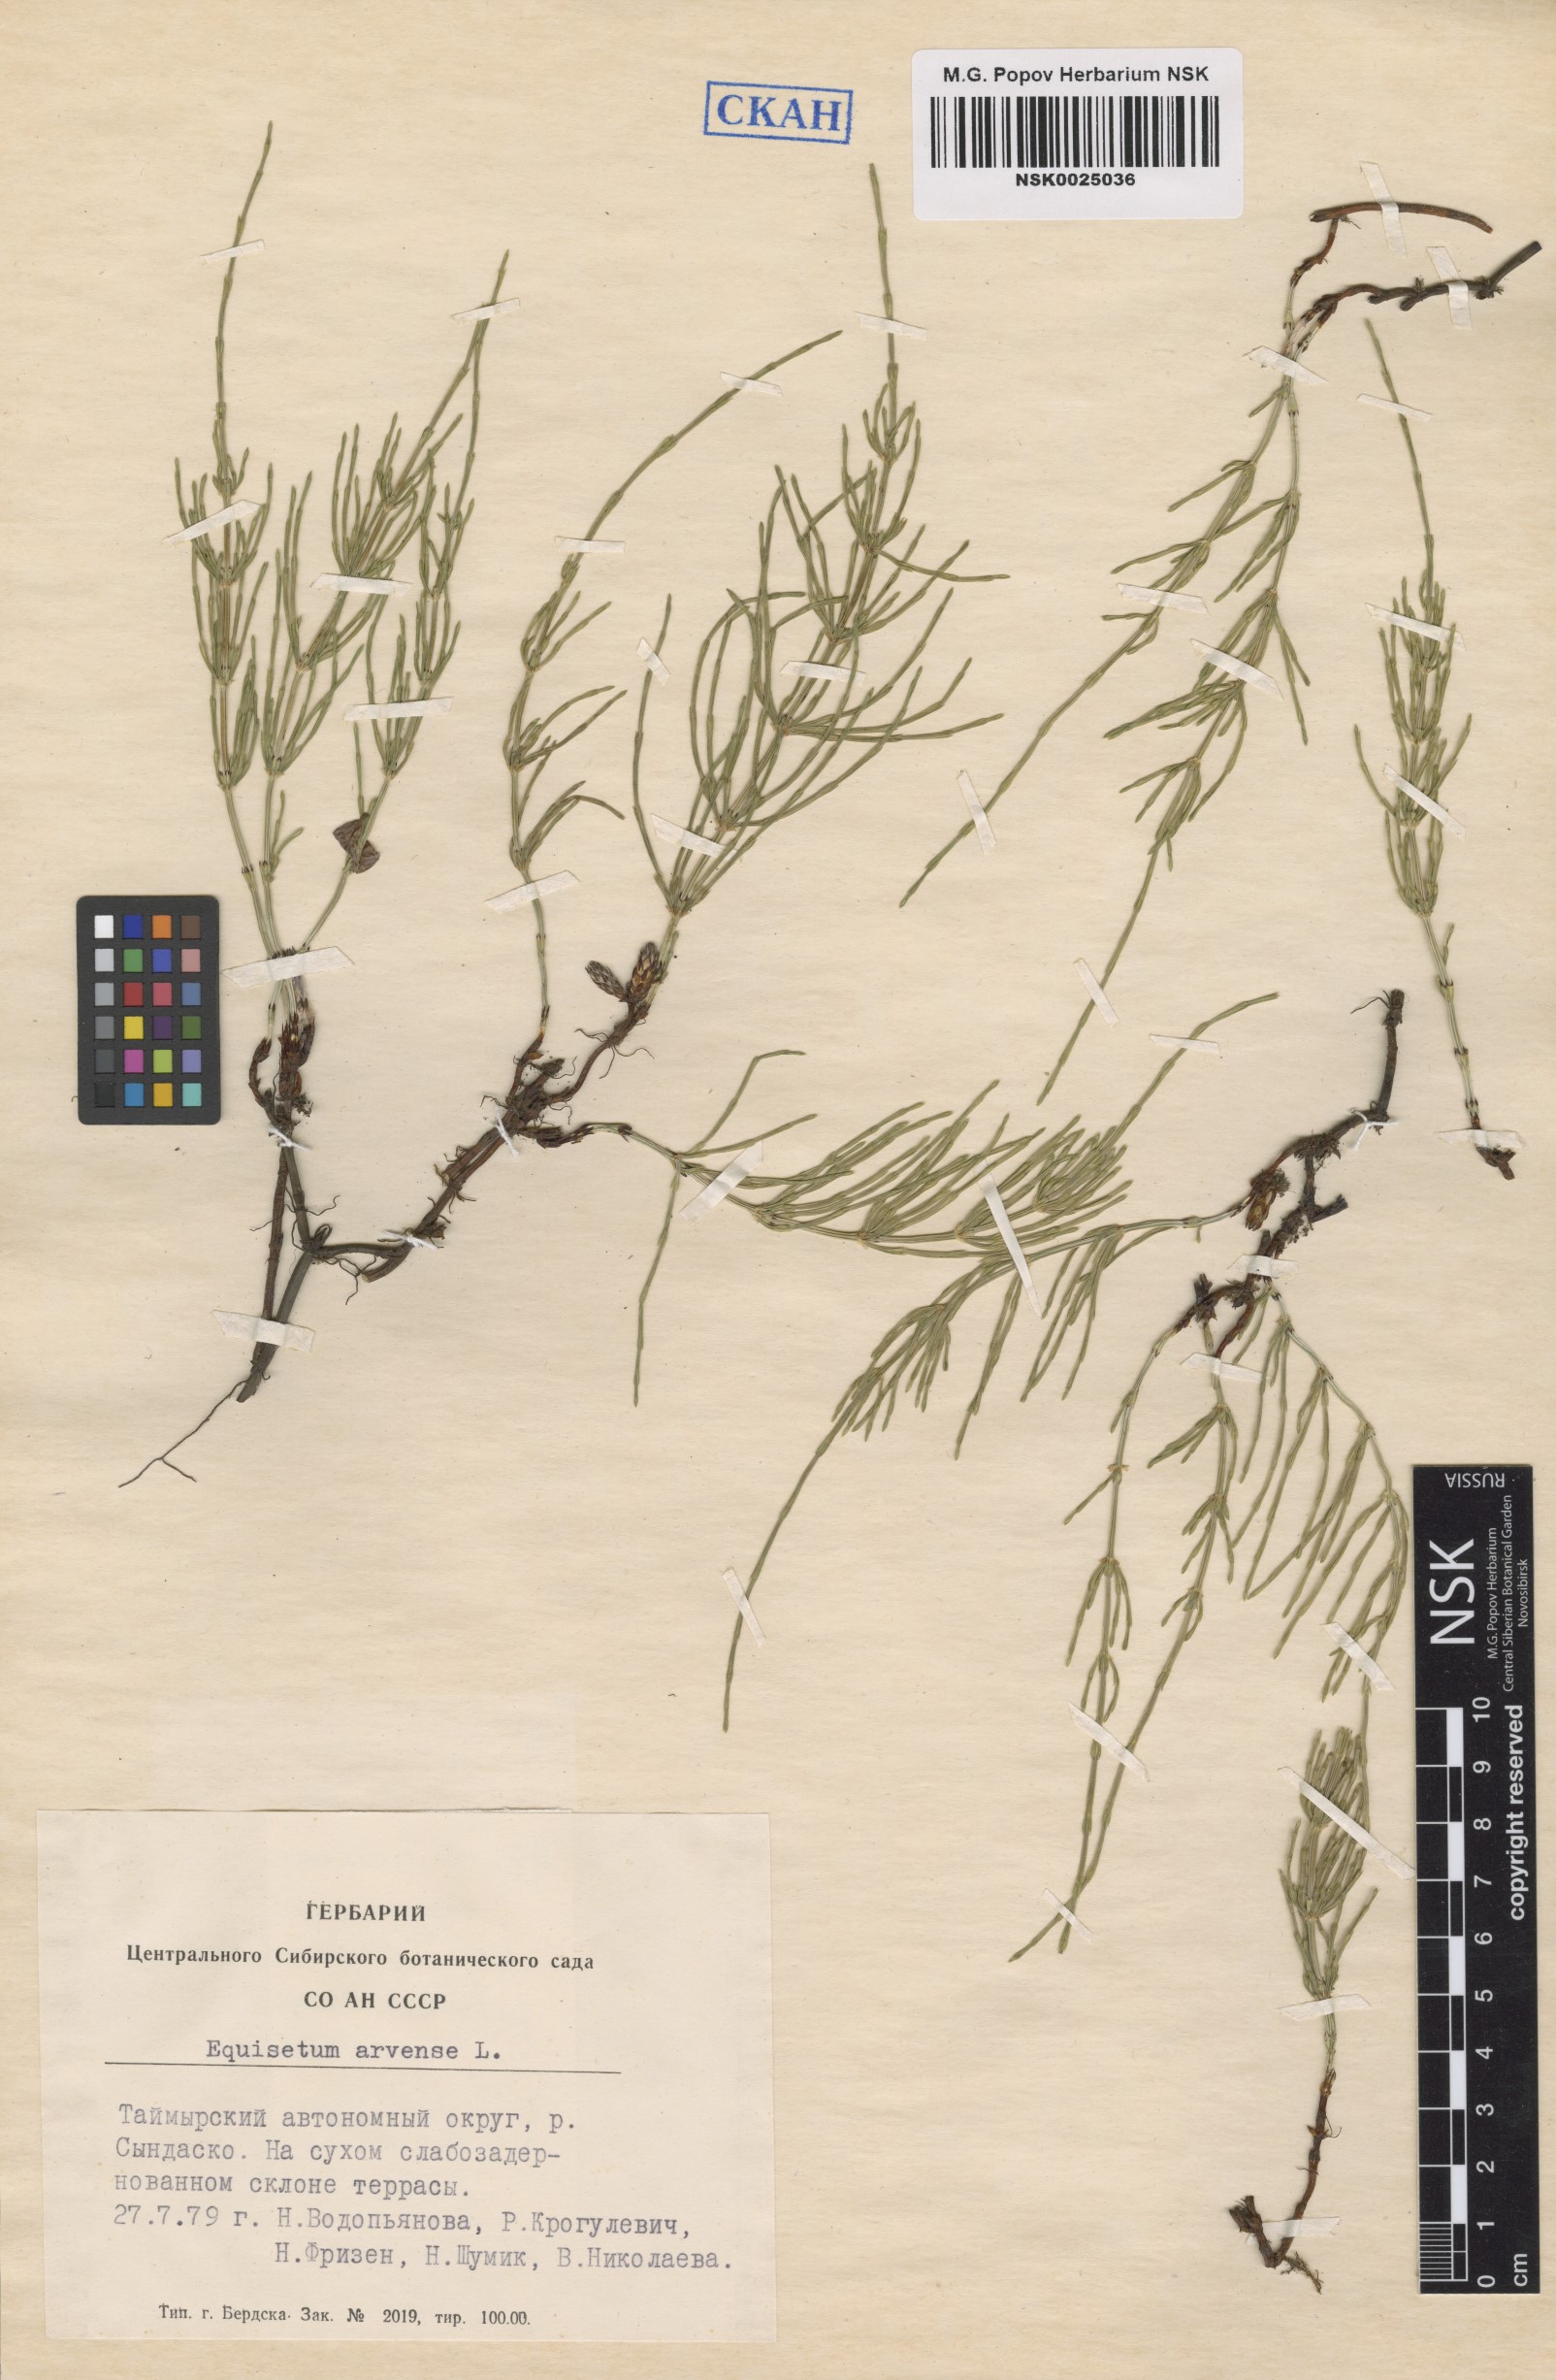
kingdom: Plantae
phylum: Tracheophyta
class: Polypodiopsida
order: Equisetales
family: Equisetaceae
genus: Equisetum
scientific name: Equisetum arvense
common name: Field horsetail
